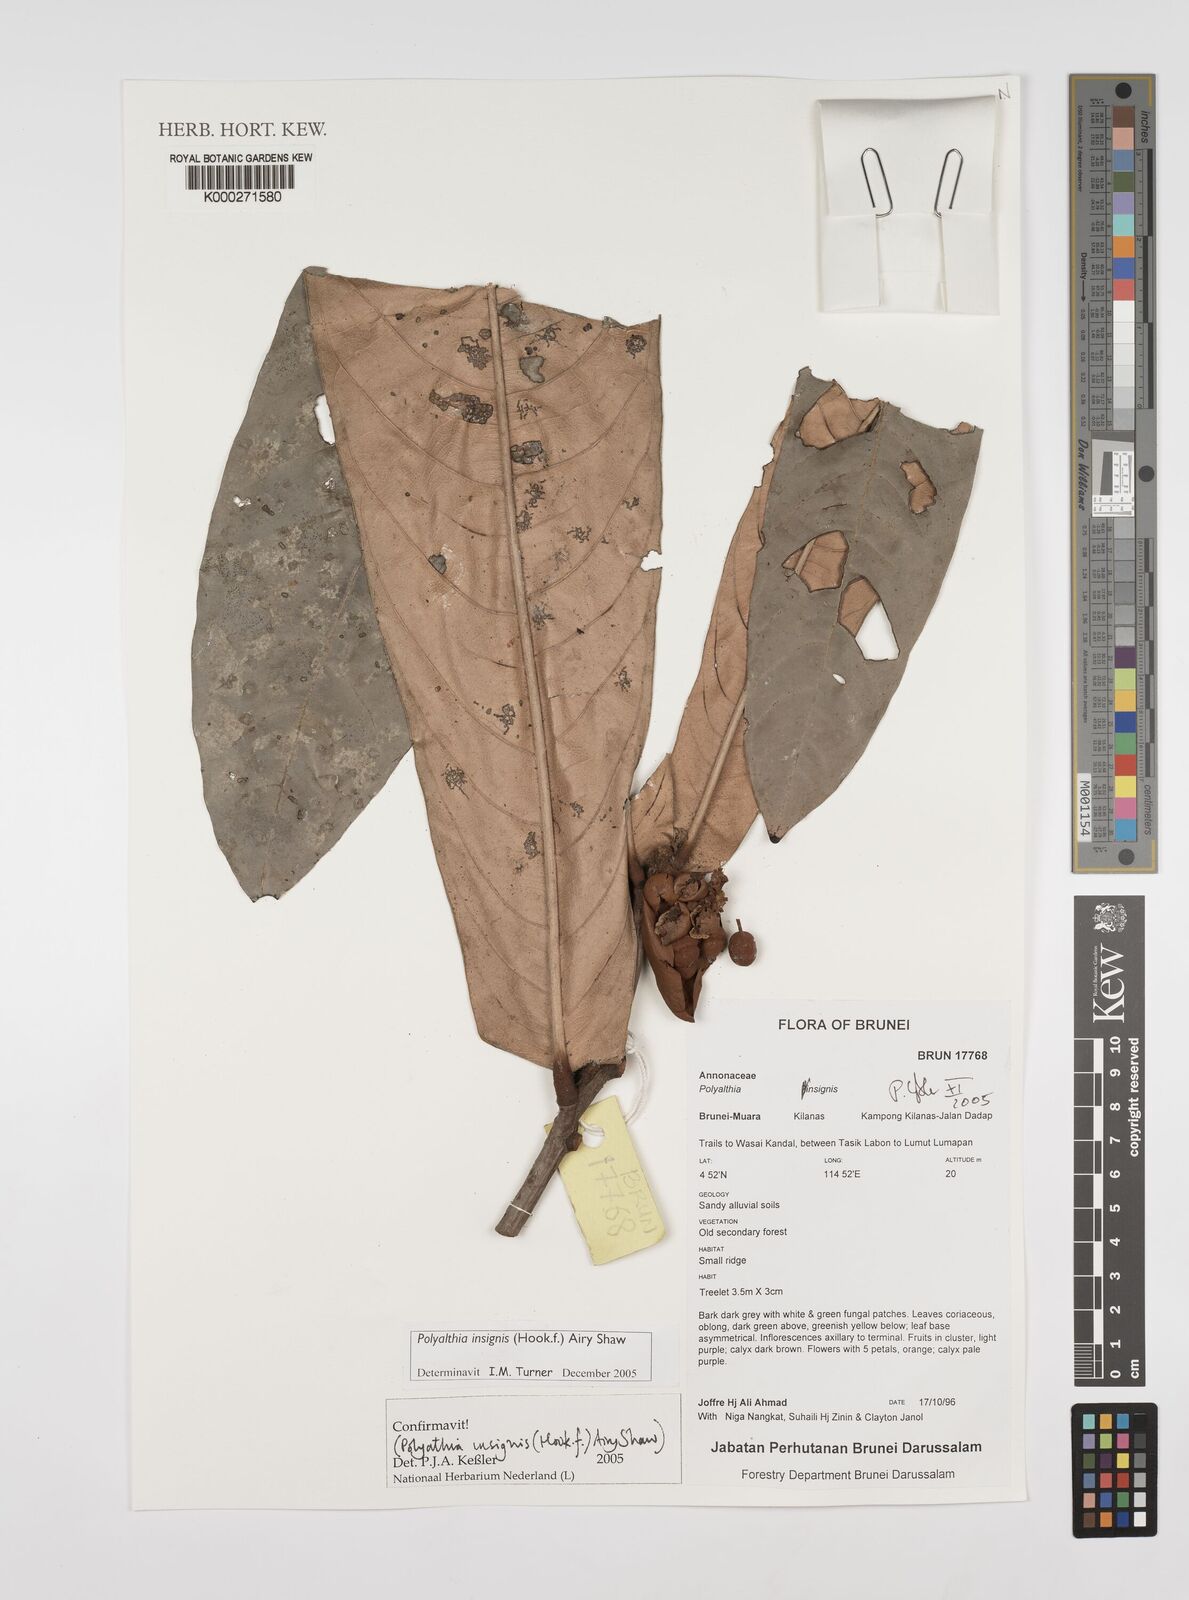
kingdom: Plantae
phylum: Tracheophyta
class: Magnoliopsida
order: Magnoliales
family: Annonaceae
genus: Polyalthia
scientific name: Polyalthia insignis
